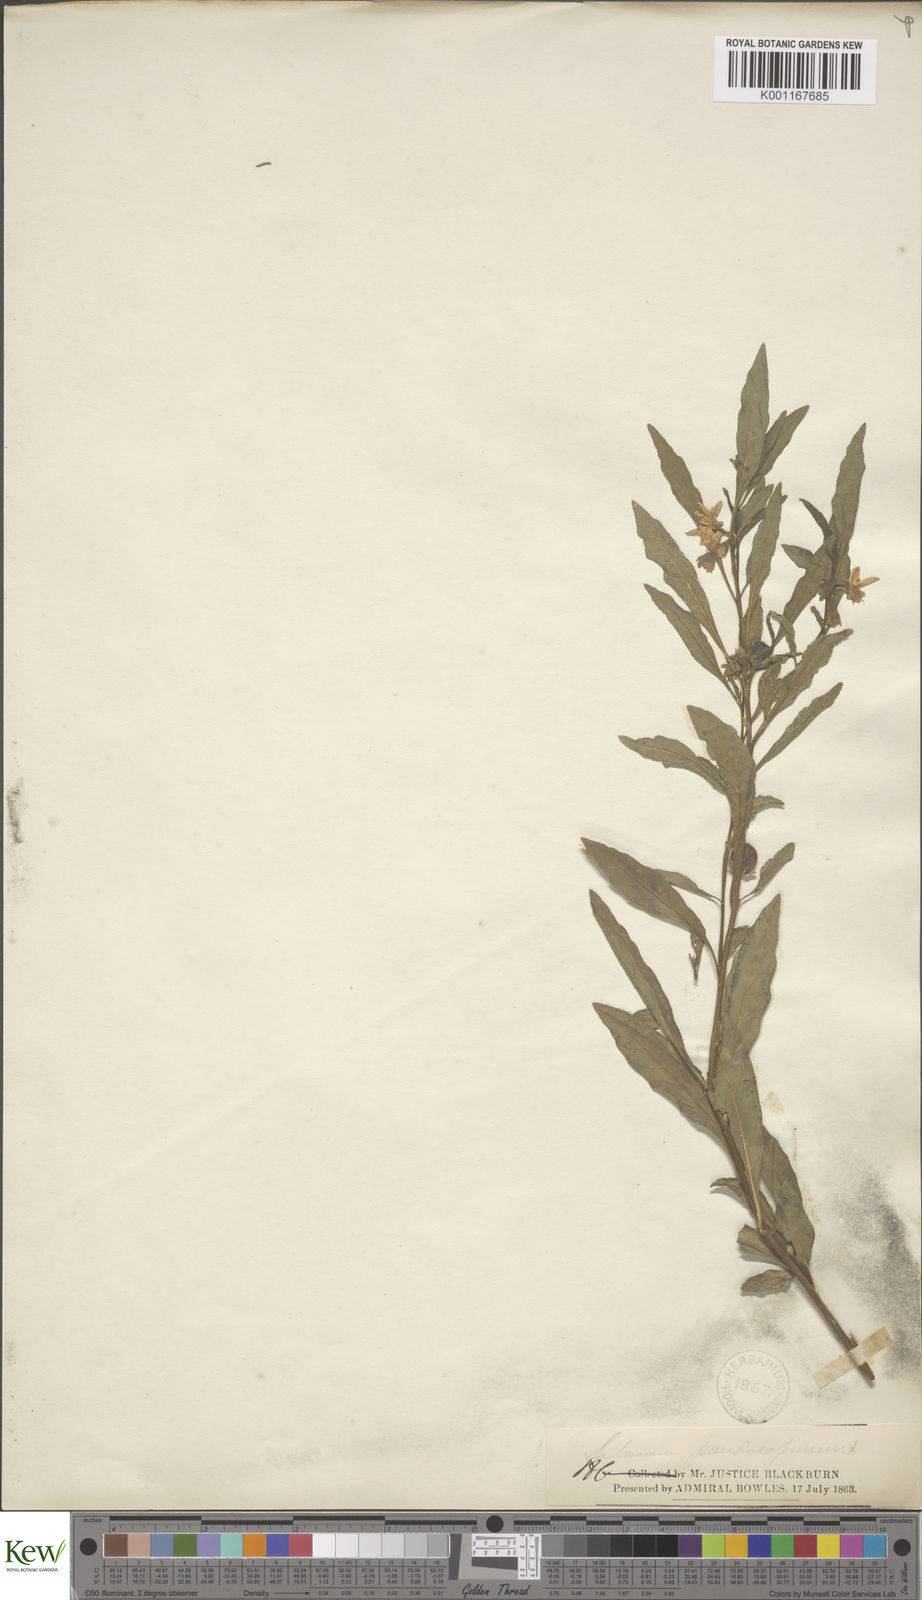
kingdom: Plantae
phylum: Tracheophyta
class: Magnoliopsida
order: Solanales
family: Solanaceae
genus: Solanum
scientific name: Solanum
